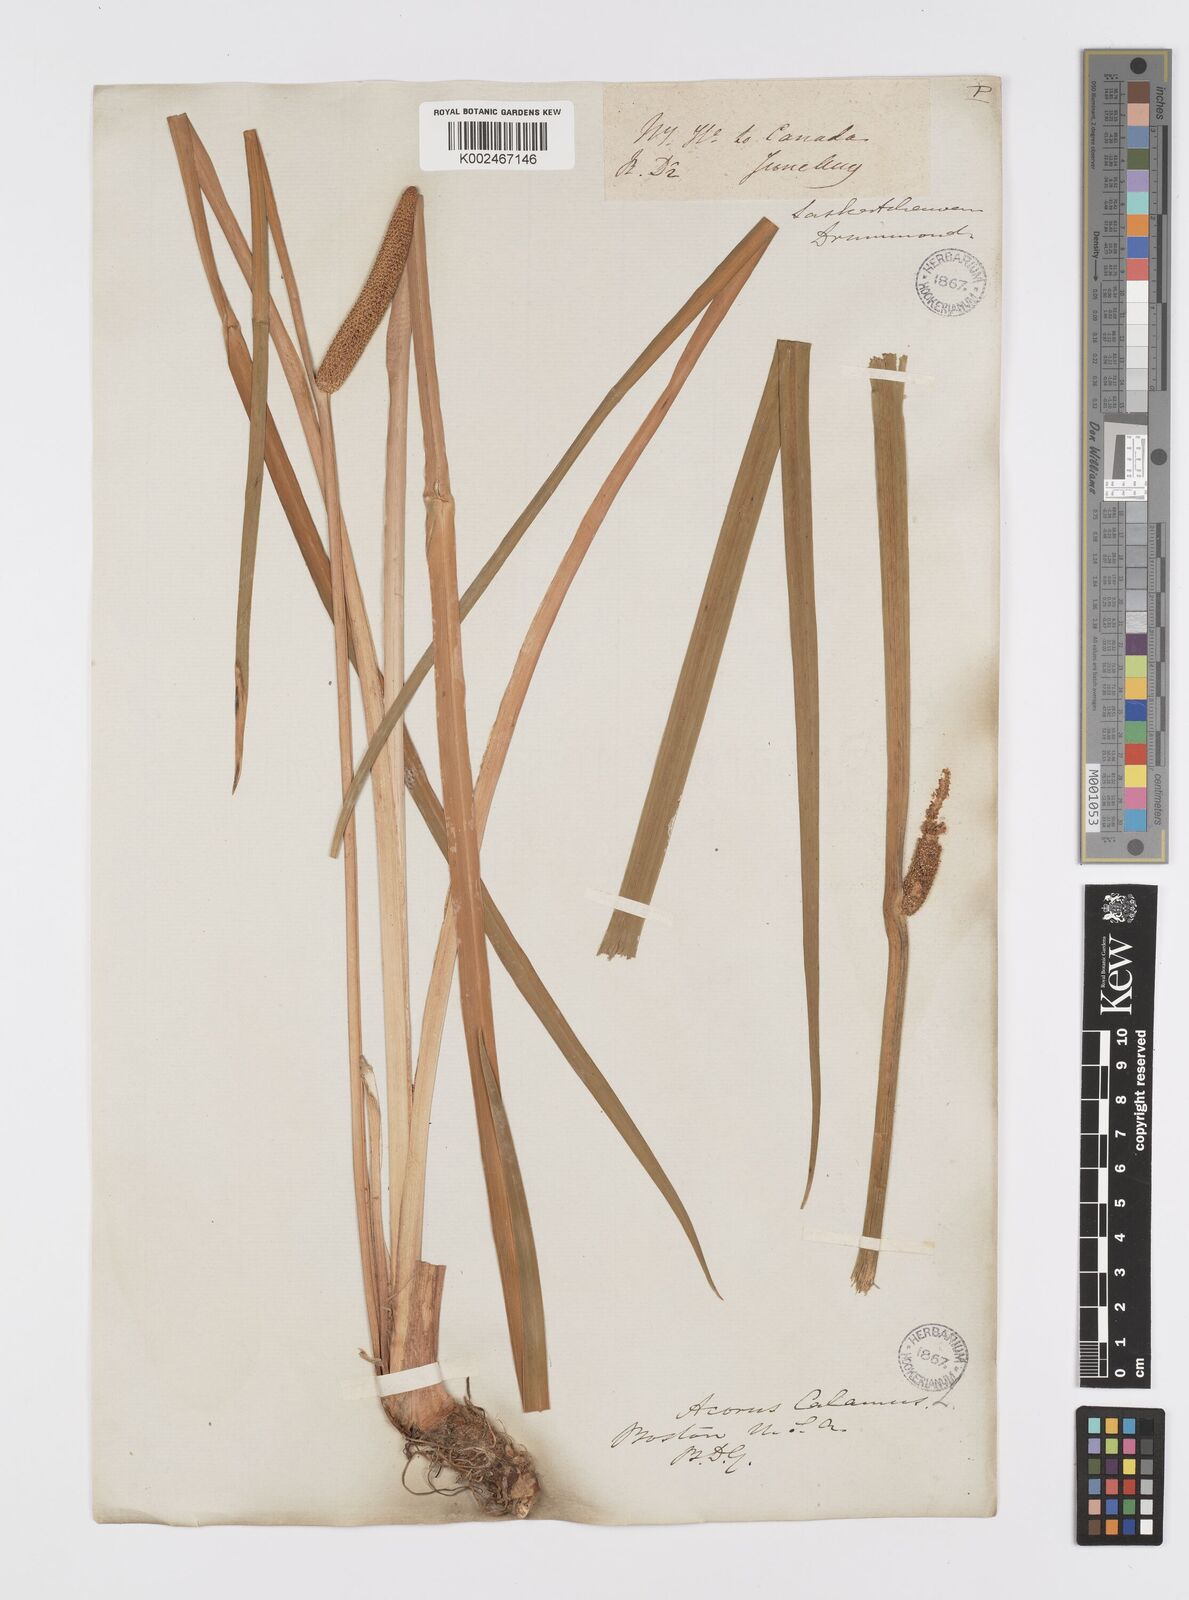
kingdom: Plantae
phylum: Tracheophyta
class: Liliopsida
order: Acorales
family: Acoraceae
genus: Acorus
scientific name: Acorus calamus
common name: Sweet-flag
